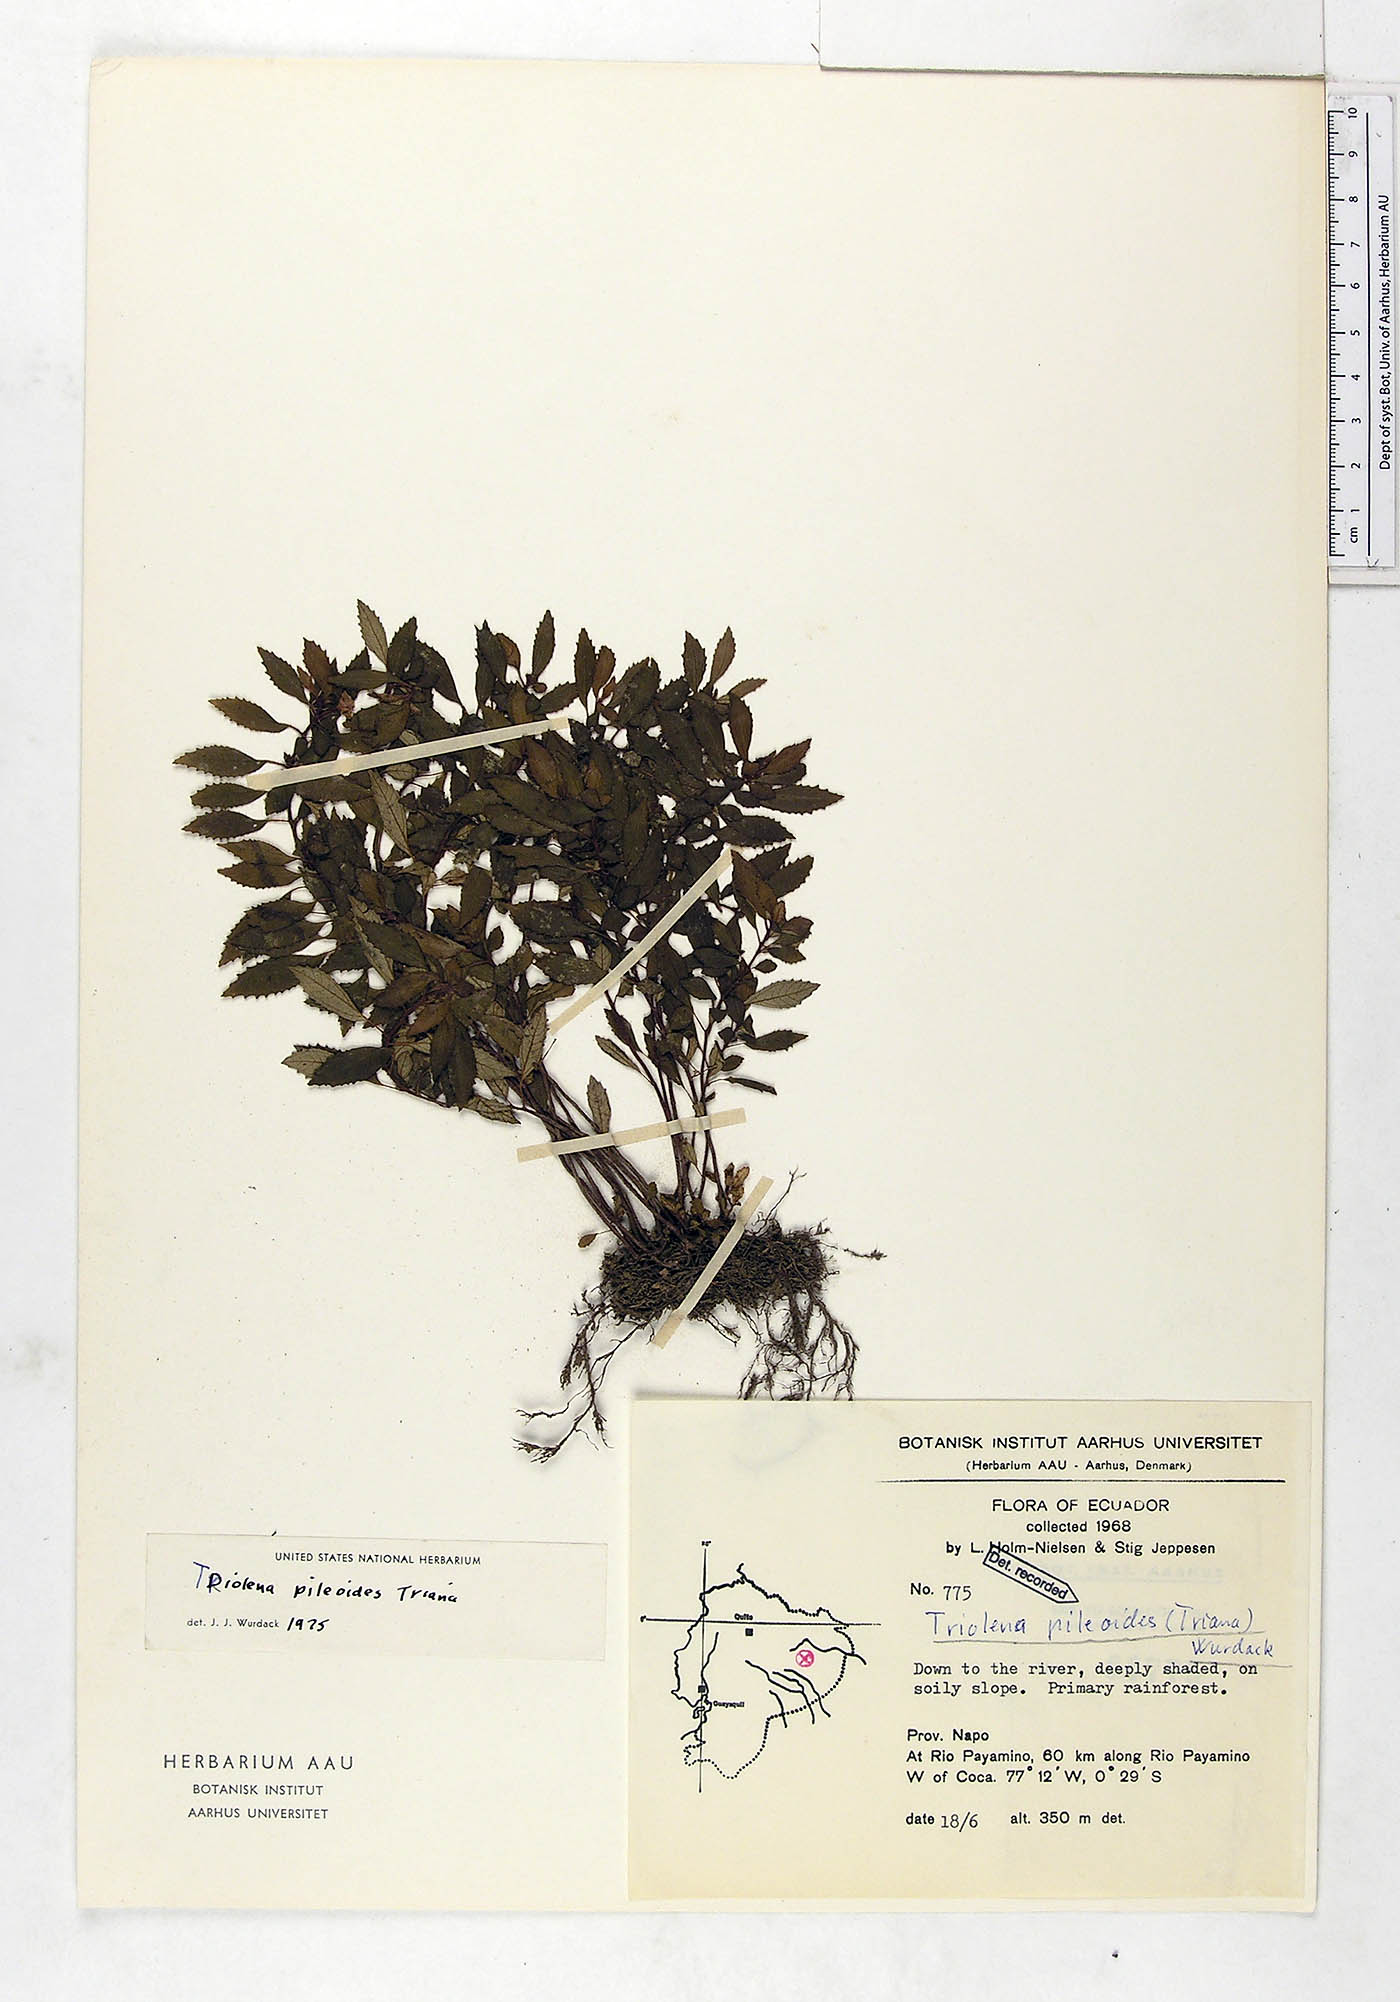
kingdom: Plantae
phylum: Tracheophyta
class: Magnoliopsida
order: Myrtales
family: Melastomataceae
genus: Triolena
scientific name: Triolena pileoides
